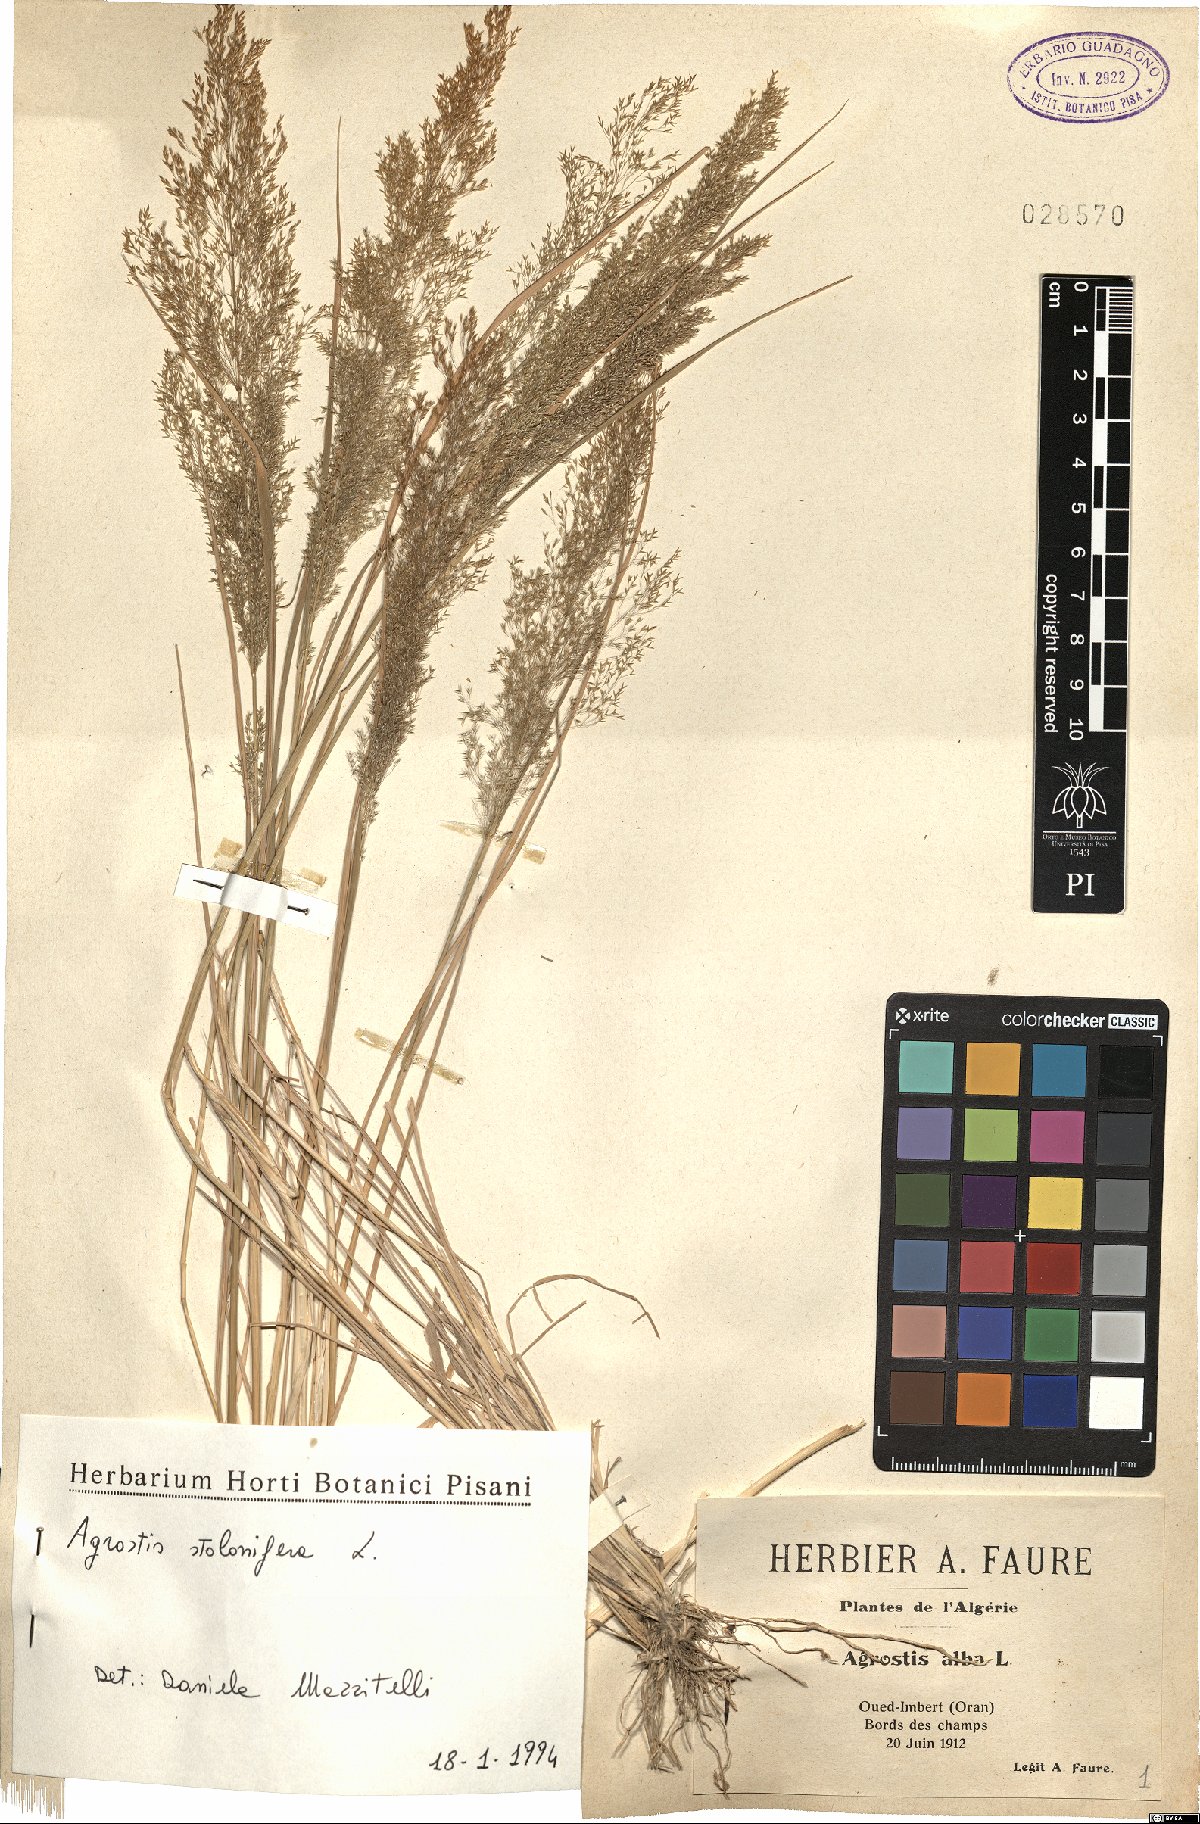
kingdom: Plantae
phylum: Tracheophyta
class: Liliopsida
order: Poales
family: Poaceae
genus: Agrostis
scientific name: Agrostis stolonifera
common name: Creeping bentgrass
